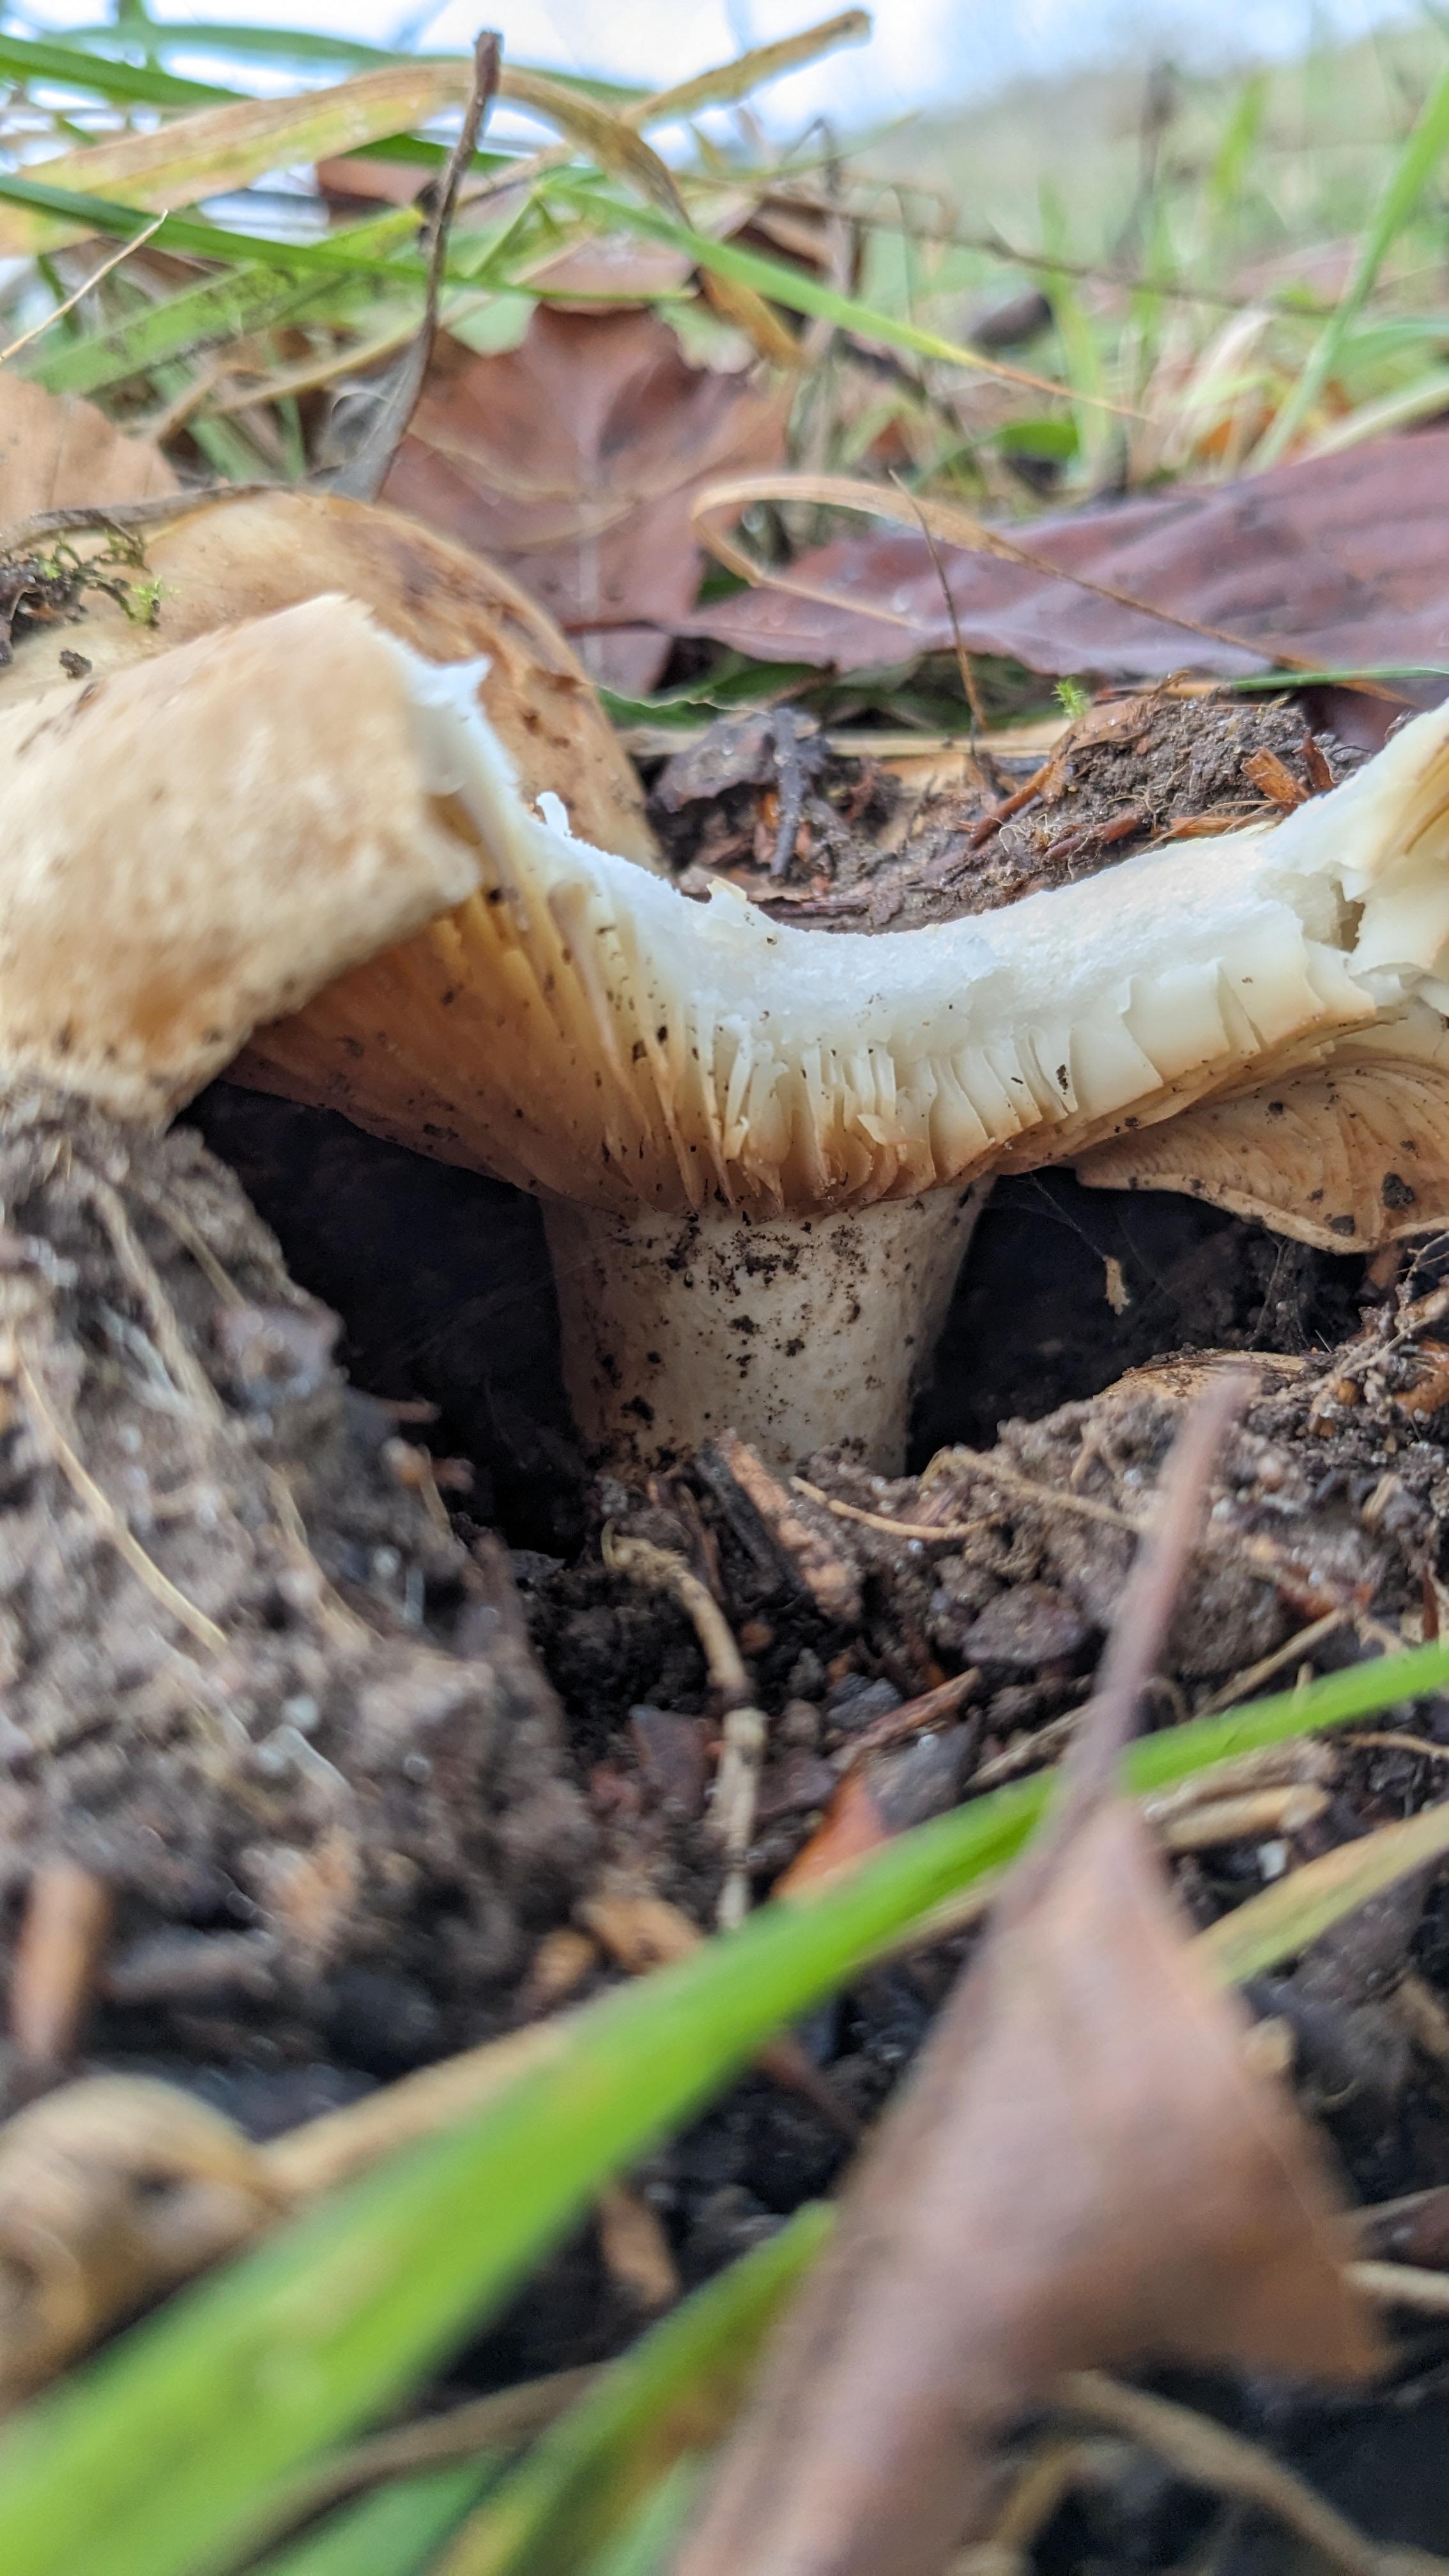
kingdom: Fungi
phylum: Basidiomycota
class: Agaricomycetes
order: Russulales
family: Russulaceae
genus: Russula
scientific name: Russula
